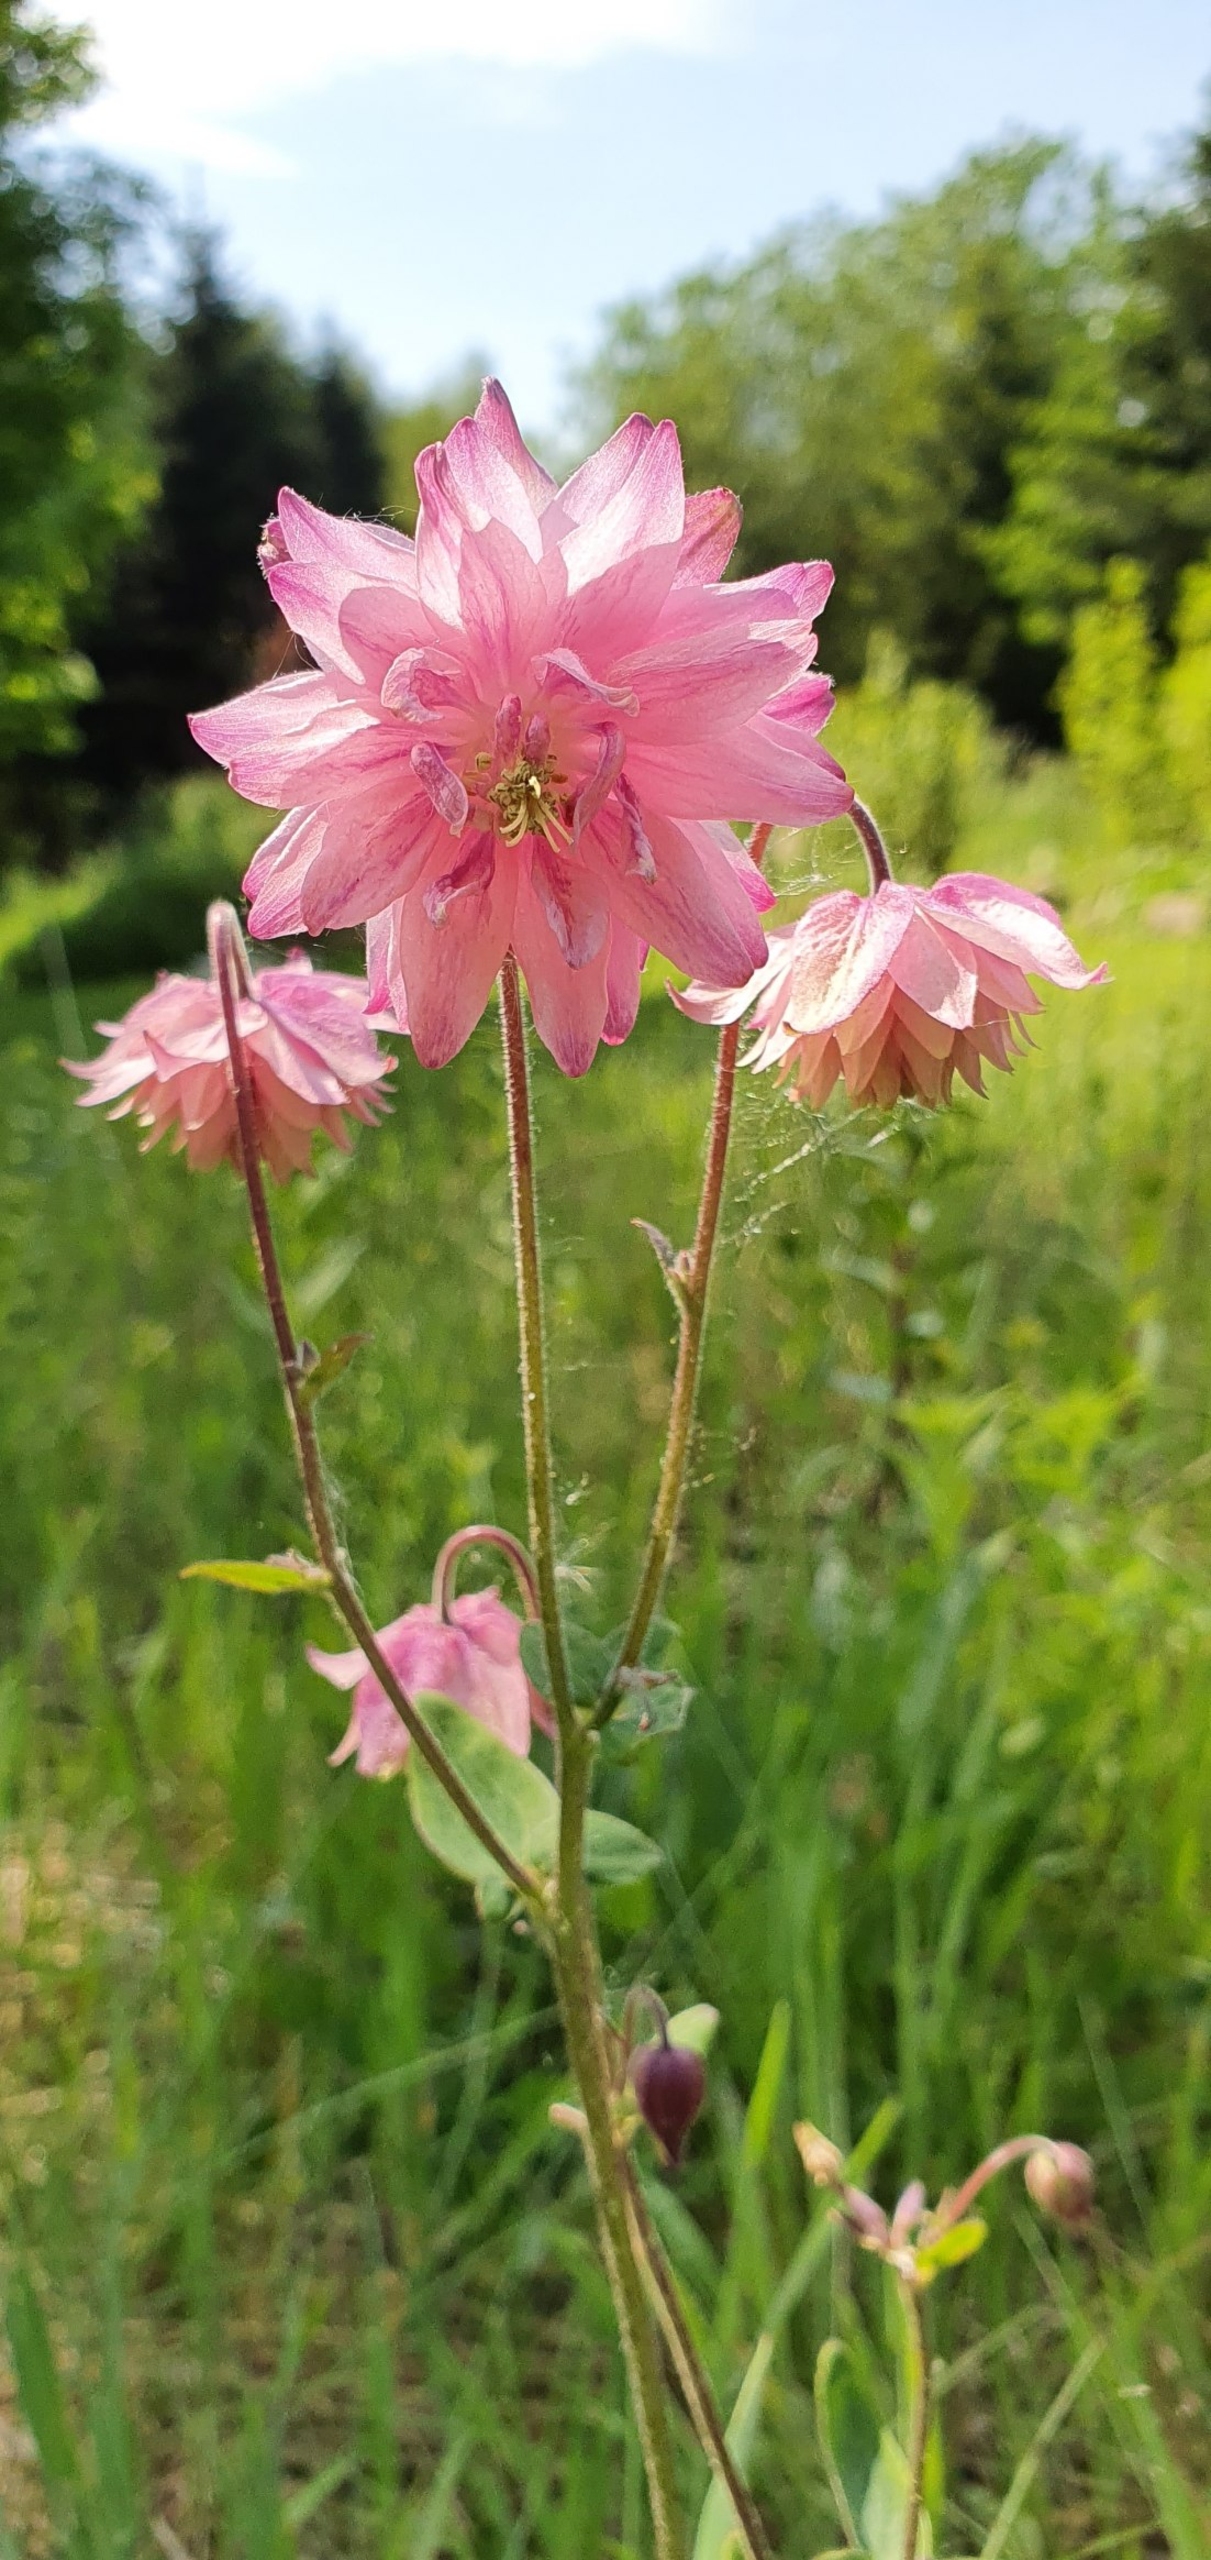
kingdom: Plantae
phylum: Tracheophyta
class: Magnoliopsida
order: Ranunculales
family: Ranunculaceae
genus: Aquilegia
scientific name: Aquilegia
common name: Akelejeslægten
